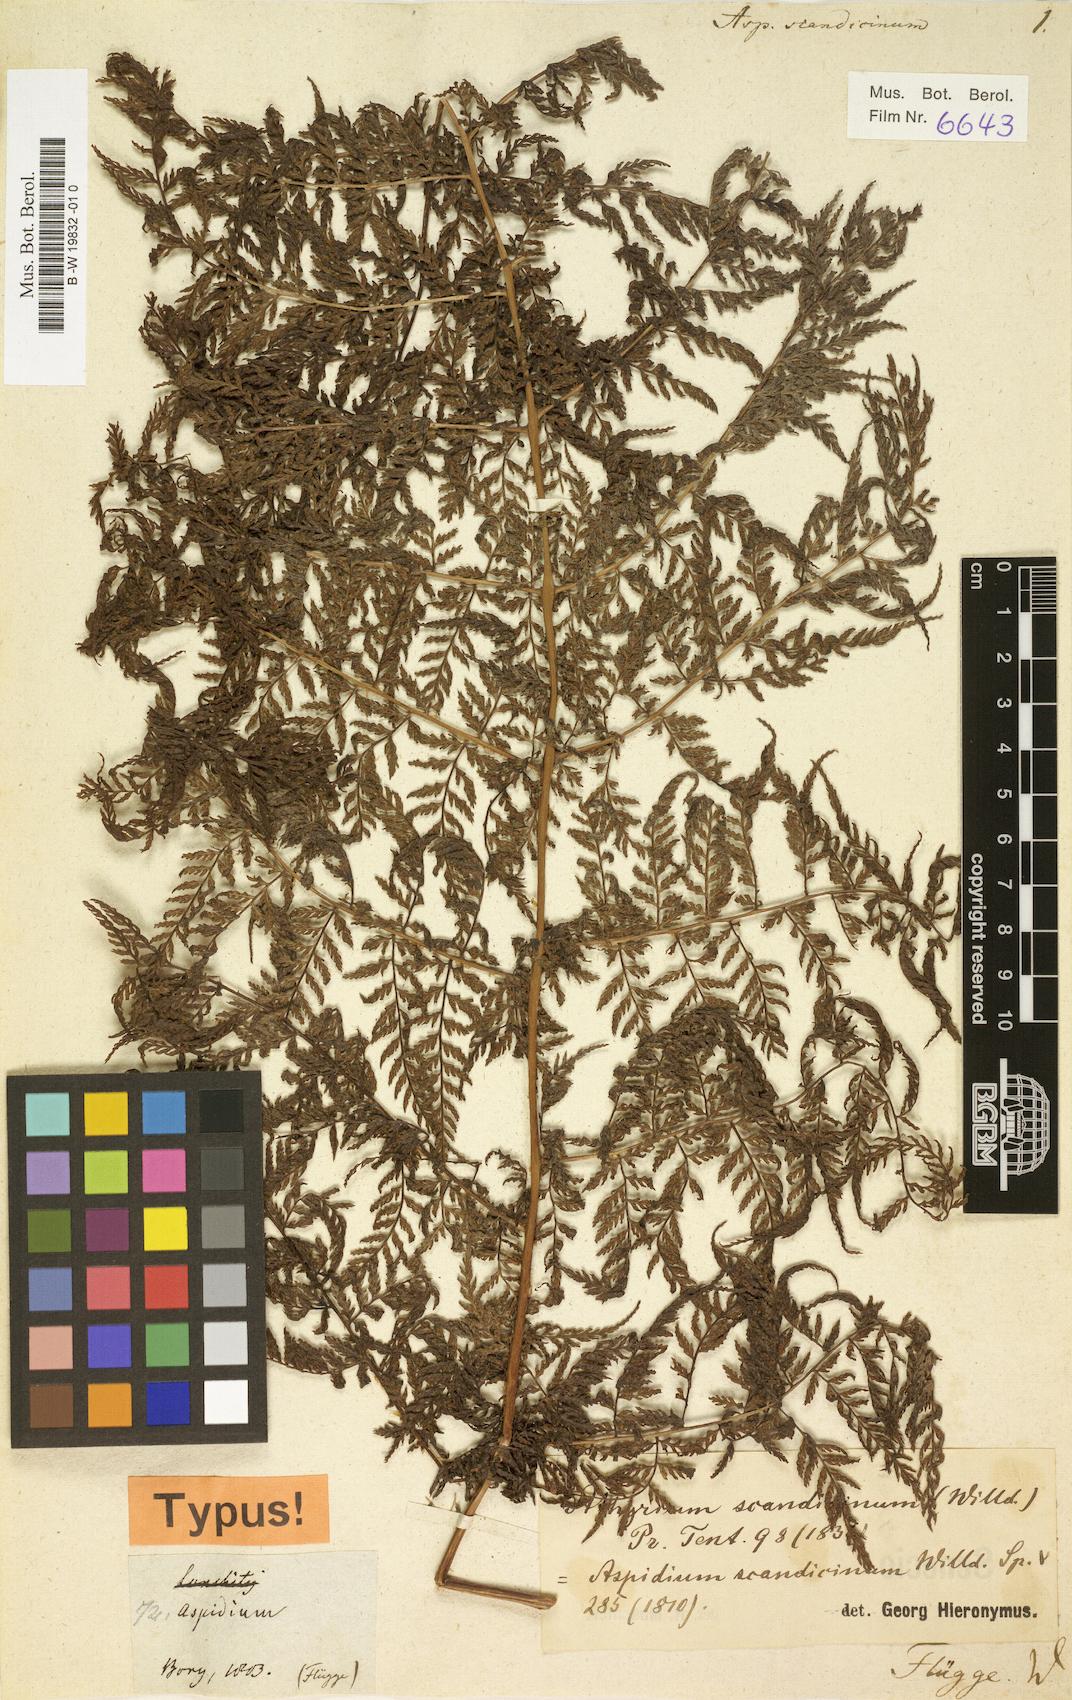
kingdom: Plantae
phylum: Tracheophyta
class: Polypodiopsida
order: Polypodiales
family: Athyriaceae
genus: Athyrium
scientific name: Athyrium scandicinum
